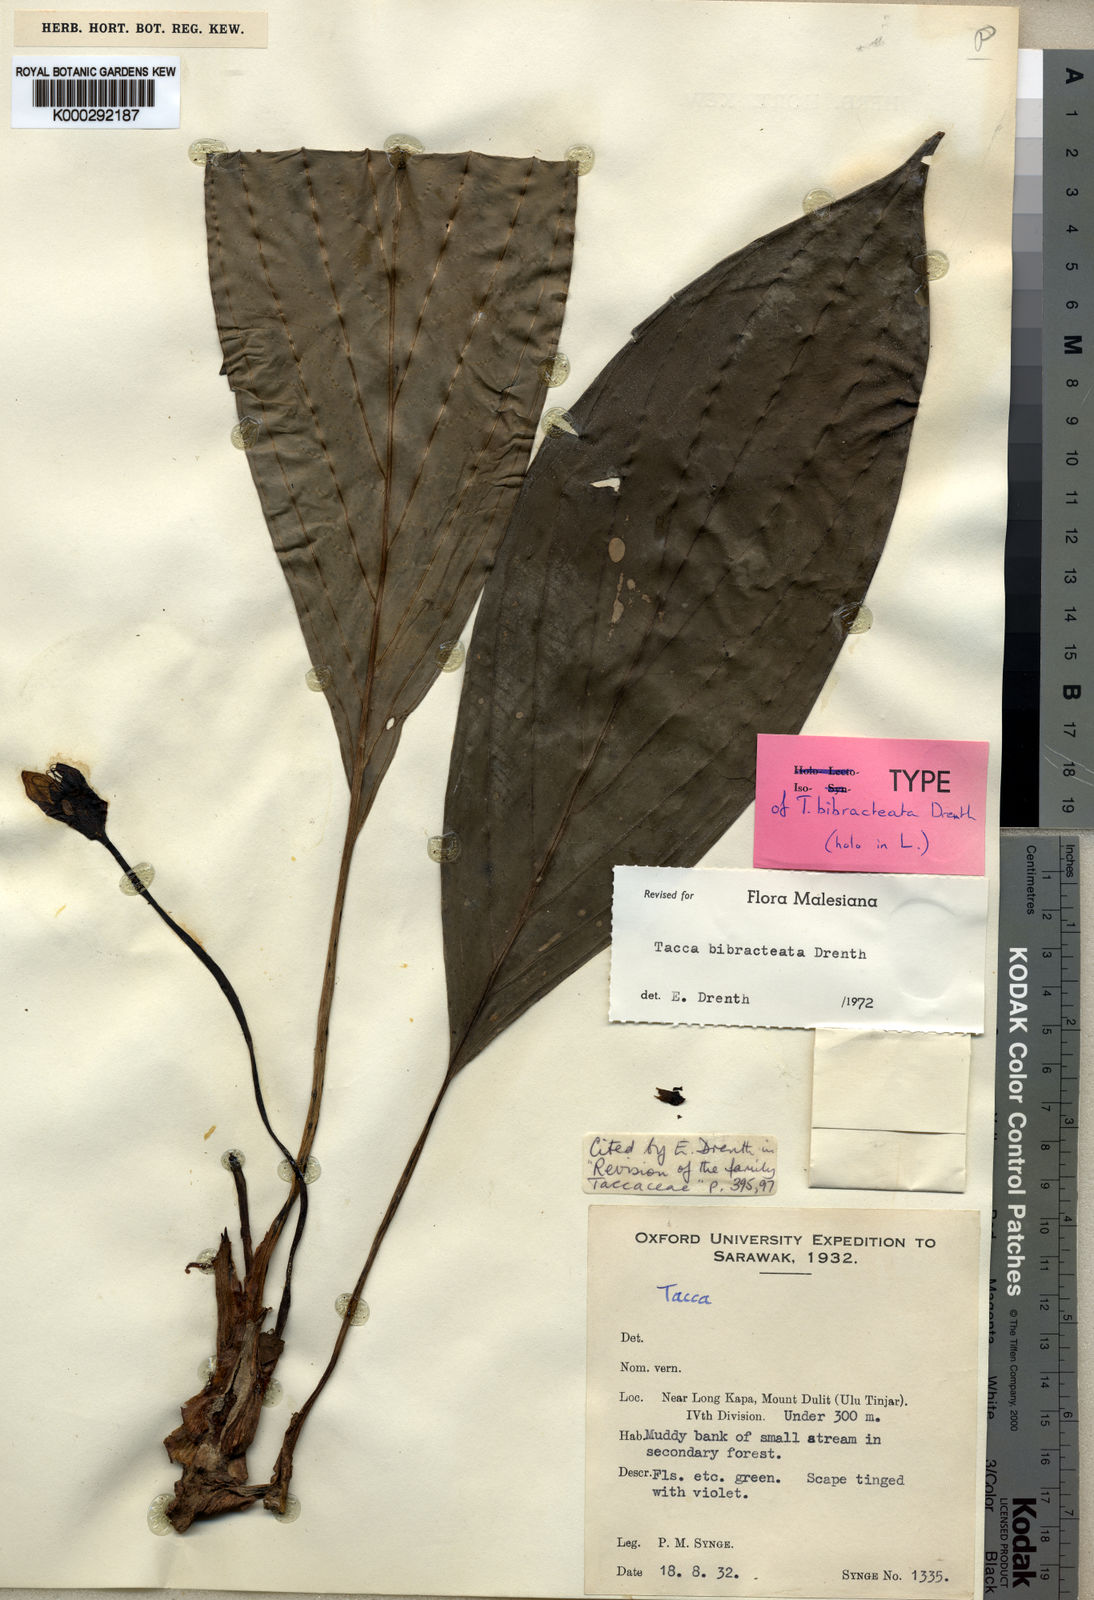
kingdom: Plantae
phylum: Tracheophyta
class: Liliopsida
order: Dioscoreales
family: Dioscoreaceae
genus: Tacca
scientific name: Tacca bibracteata
